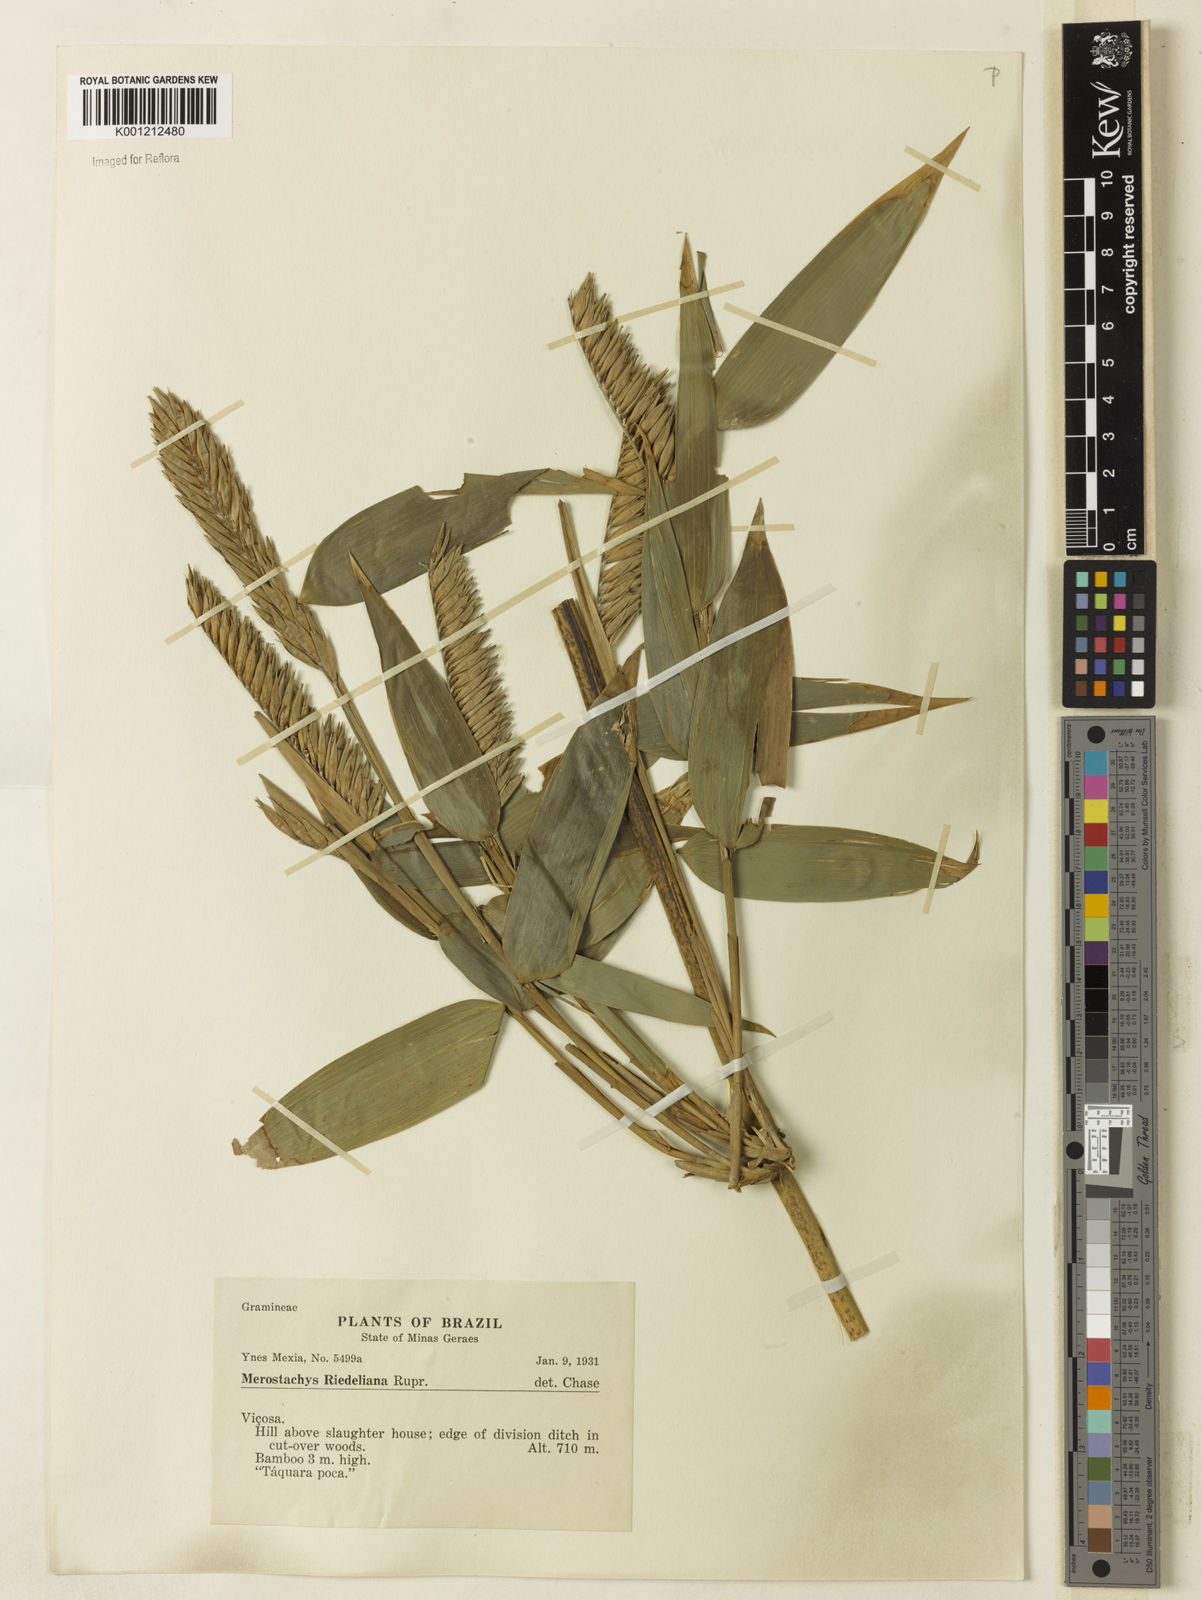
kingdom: Plantae
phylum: Tracheophyta
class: Liliopsida
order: Poales
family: Poaceae
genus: Merostachys
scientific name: Merostachys
